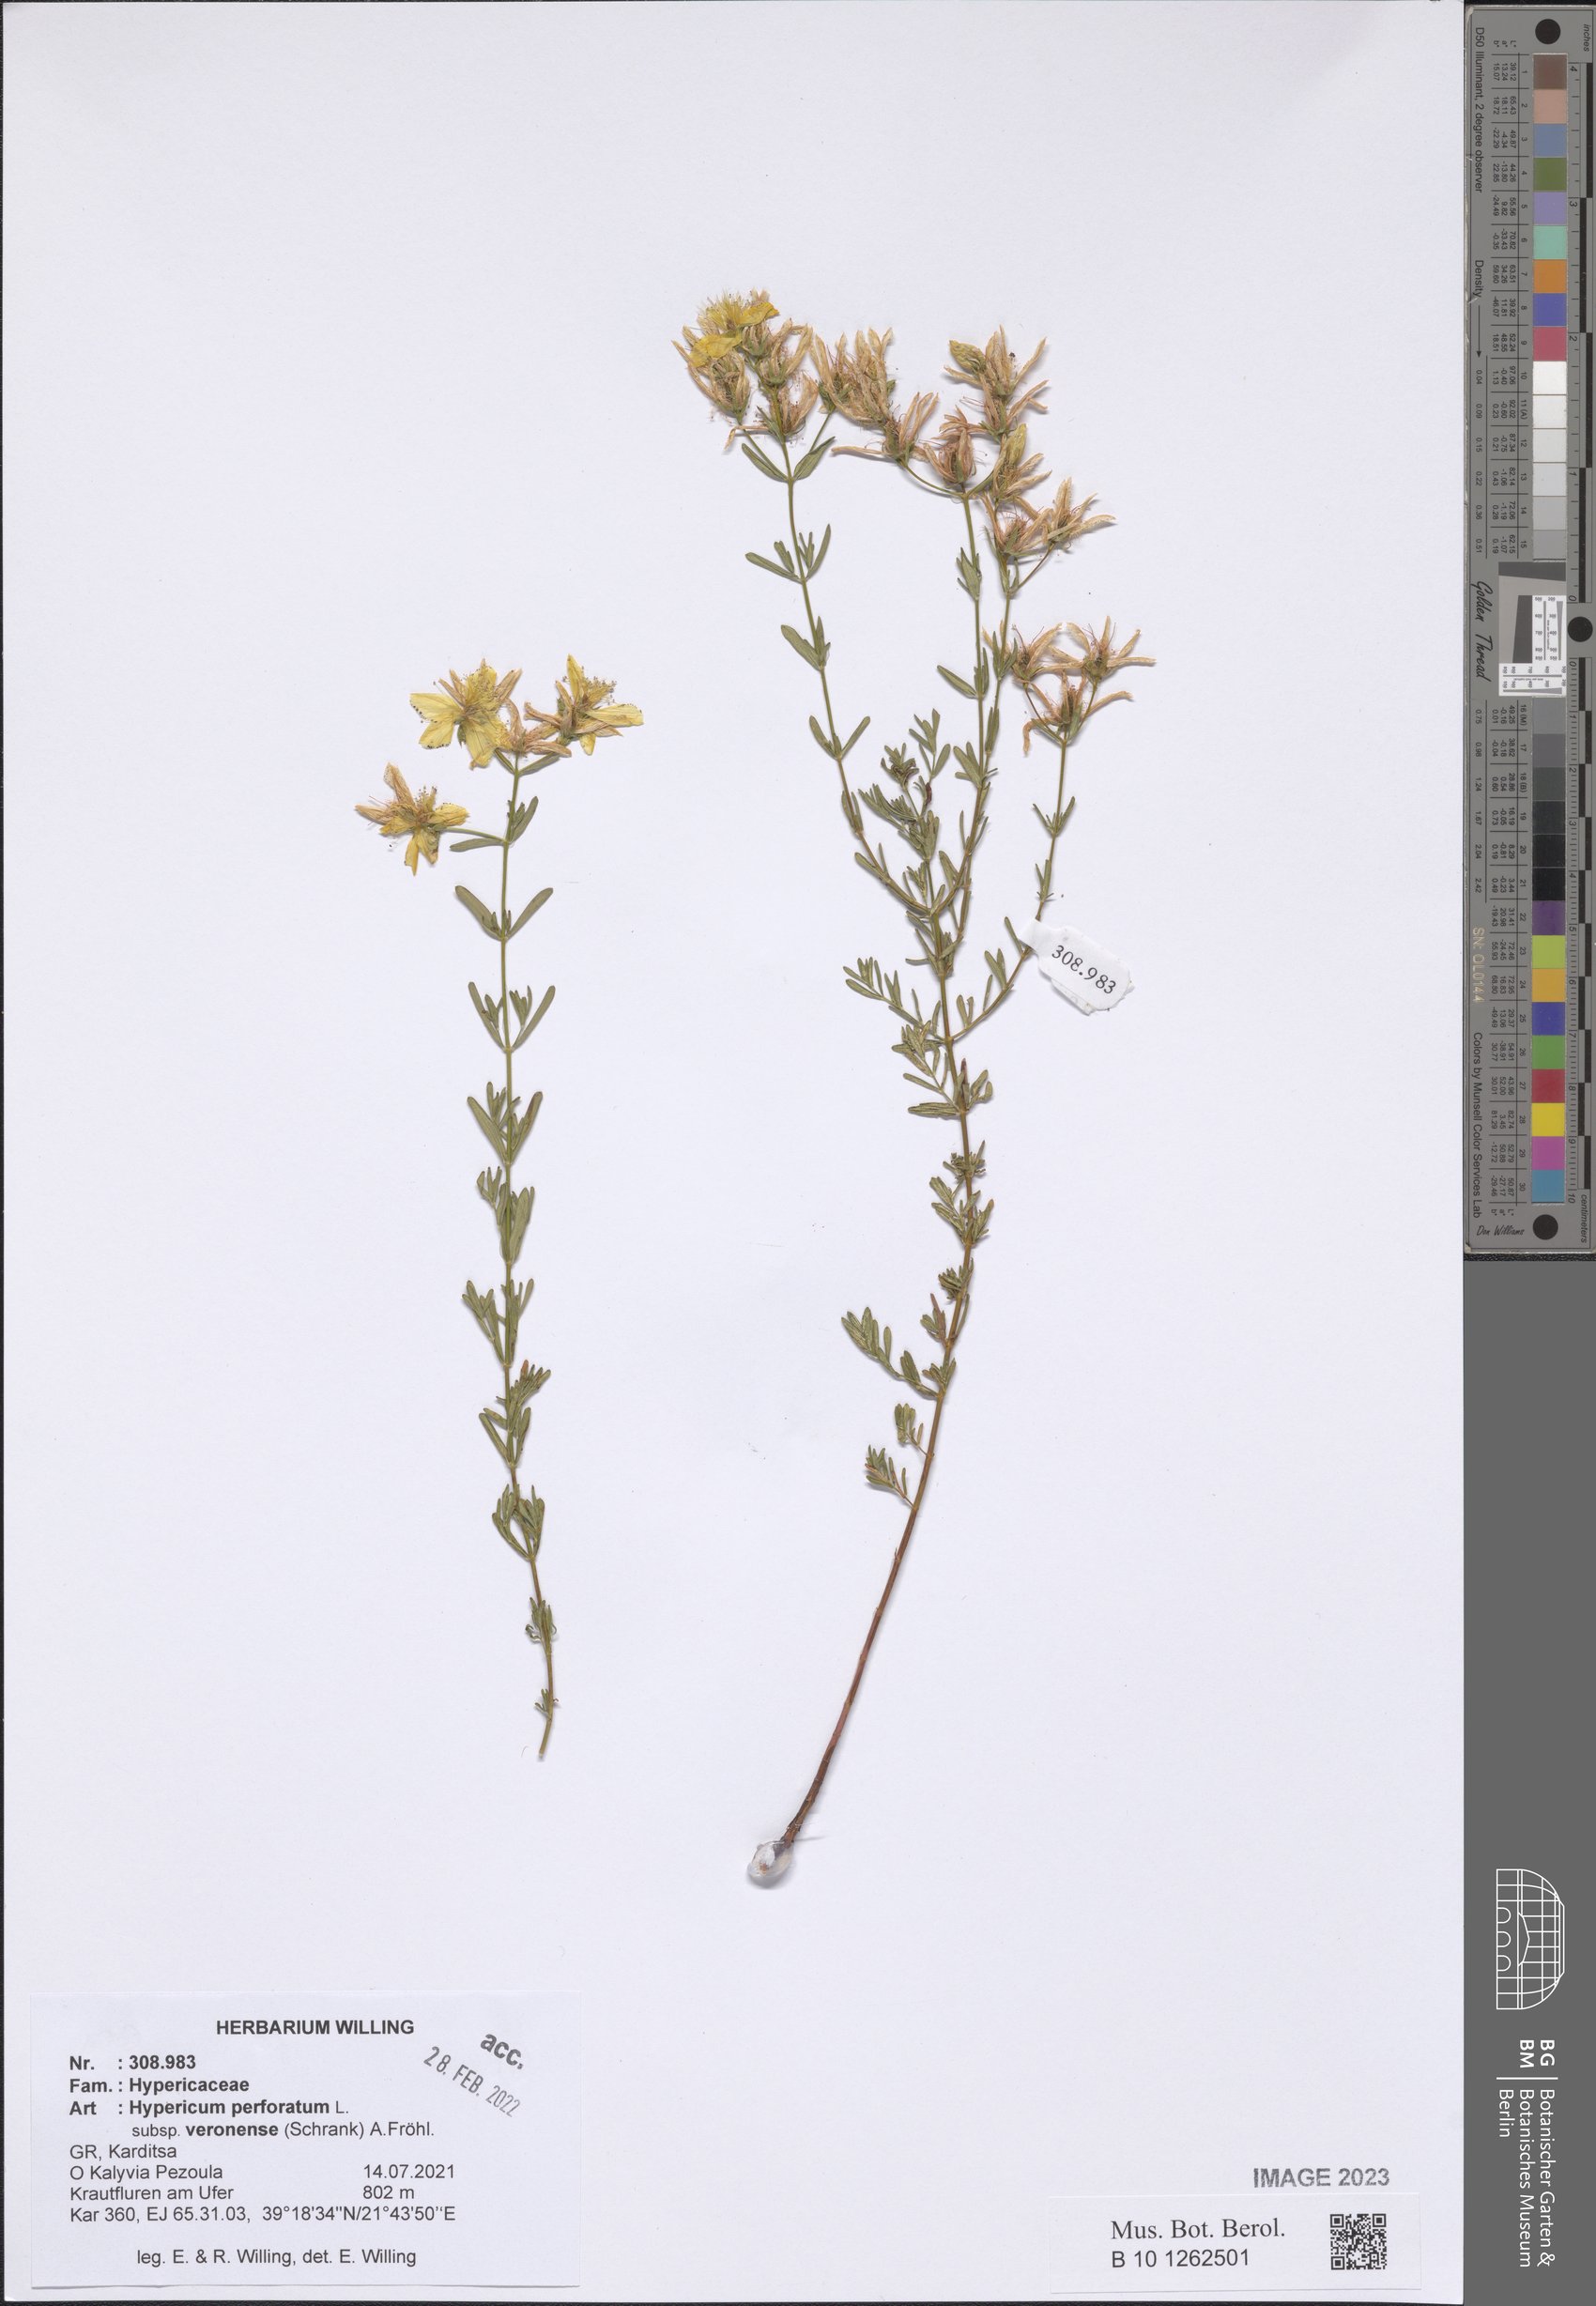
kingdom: Plantae
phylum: Tracheophyta
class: Magnoliopsida
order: Malpighiales
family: Hypericaceae
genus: Hypericum
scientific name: Hypericum veronense
